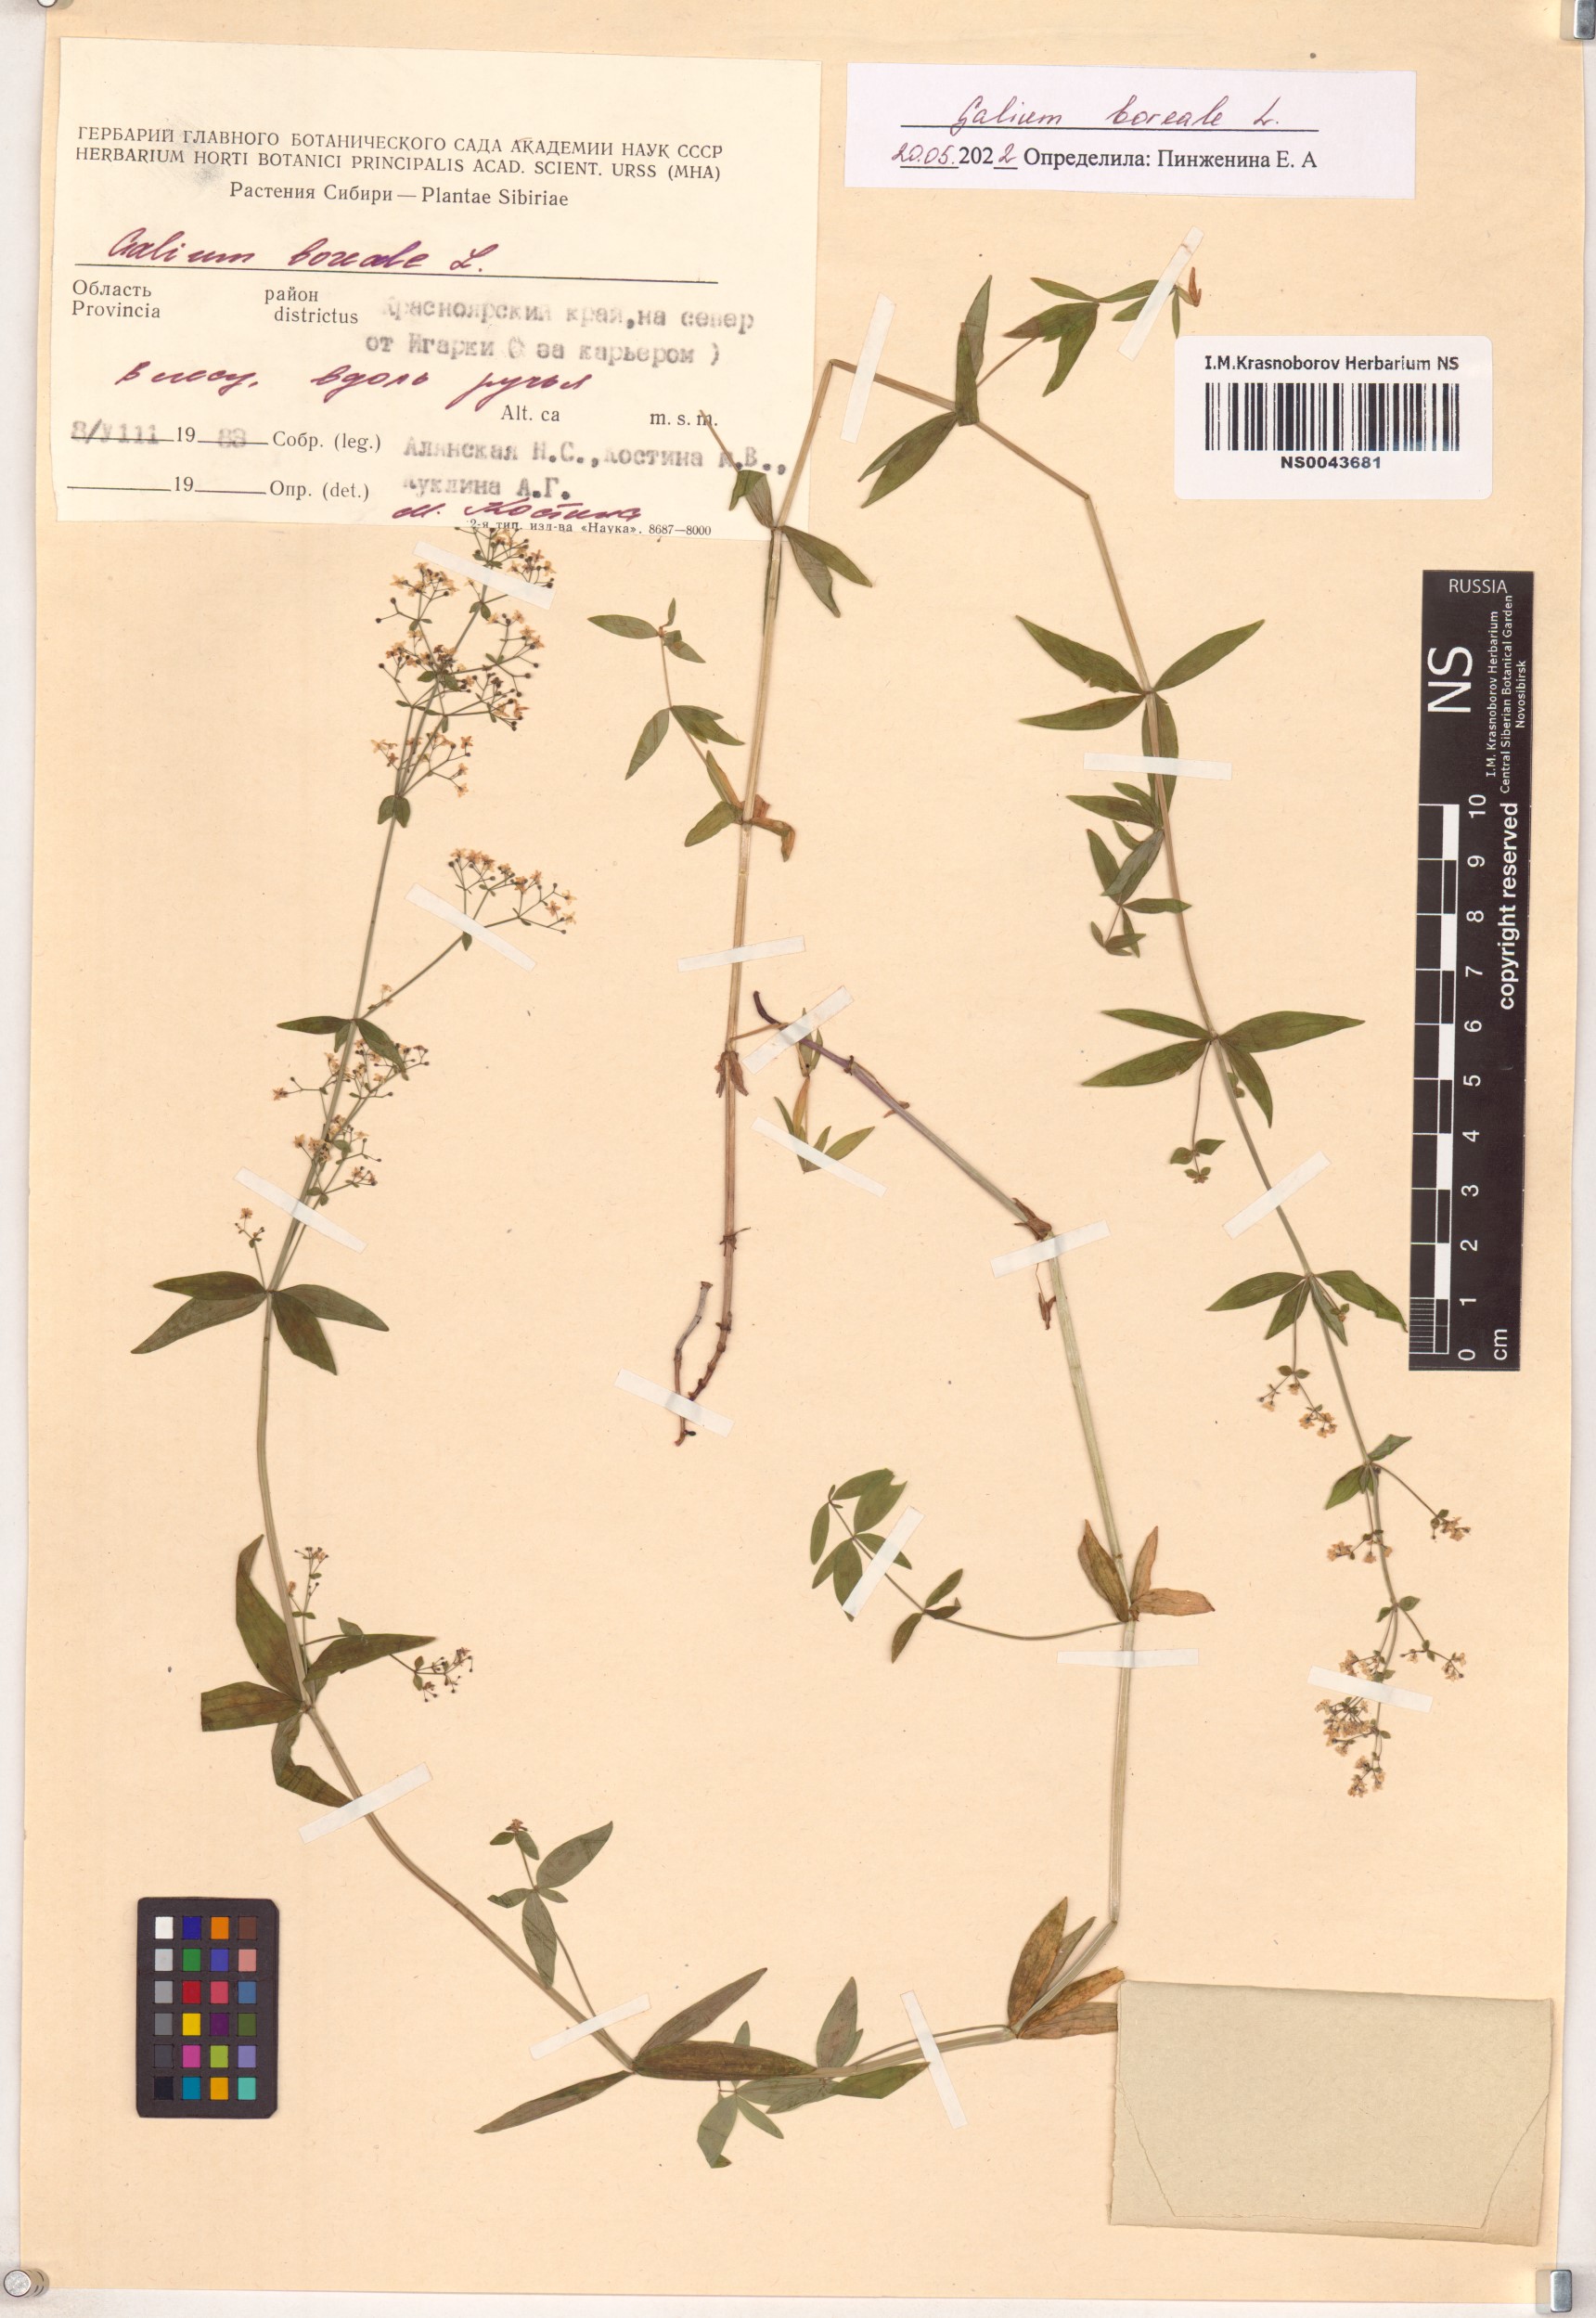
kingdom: Plantae
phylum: Tracheophyta
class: Magnoliopsida
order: Gentianales
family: Rubiaceae
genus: Galium
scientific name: Galium boreale
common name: Northern bedstraw
